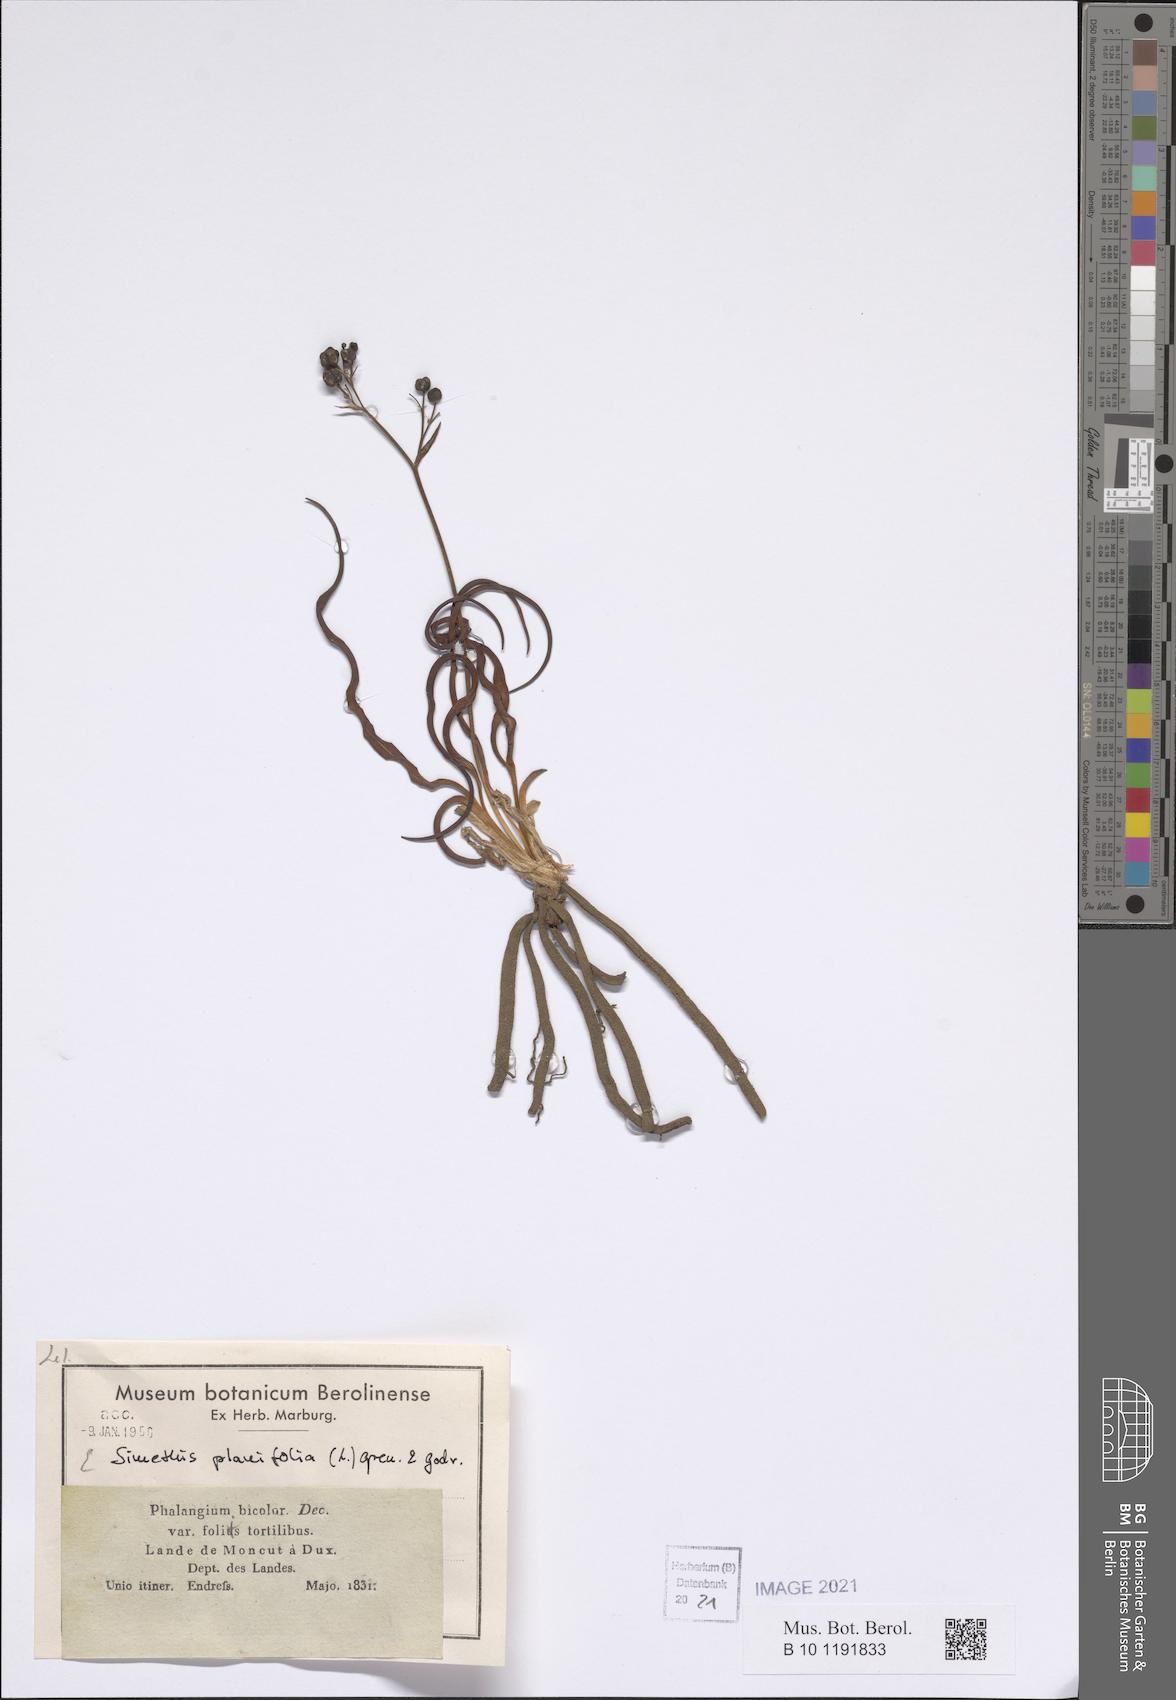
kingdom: Plantae
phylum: Tracheophyta
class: Liliopsida
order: Asparagales
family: Asphodelaceae
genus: Simethis
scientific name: Simethis mattiazzii
